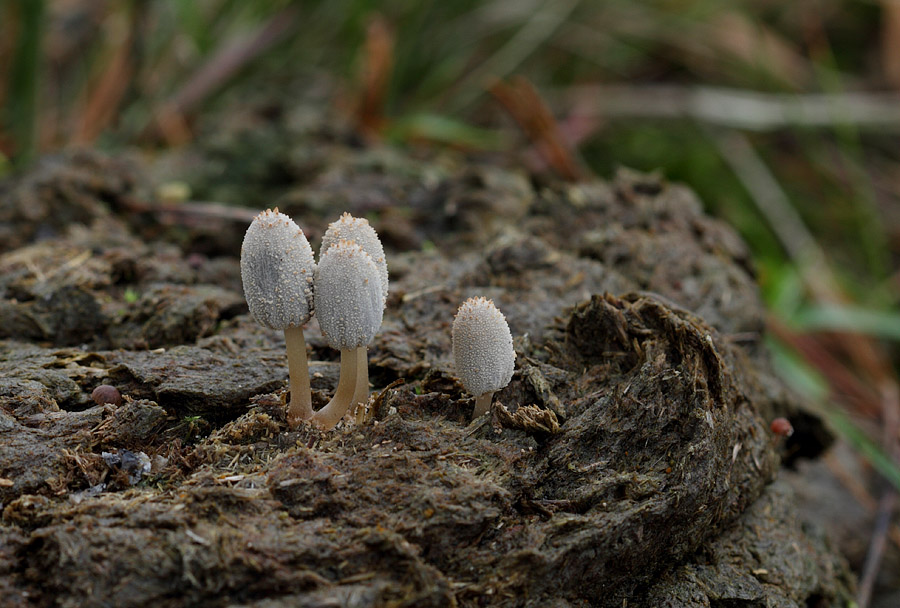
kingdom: Fungi
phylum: Basidiomycota
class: Agaricomycetes
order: Agaricales
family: Psathyrellaceae
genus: Narcissea
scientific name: Narcissea ephemeroides
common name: ring-blækhat
